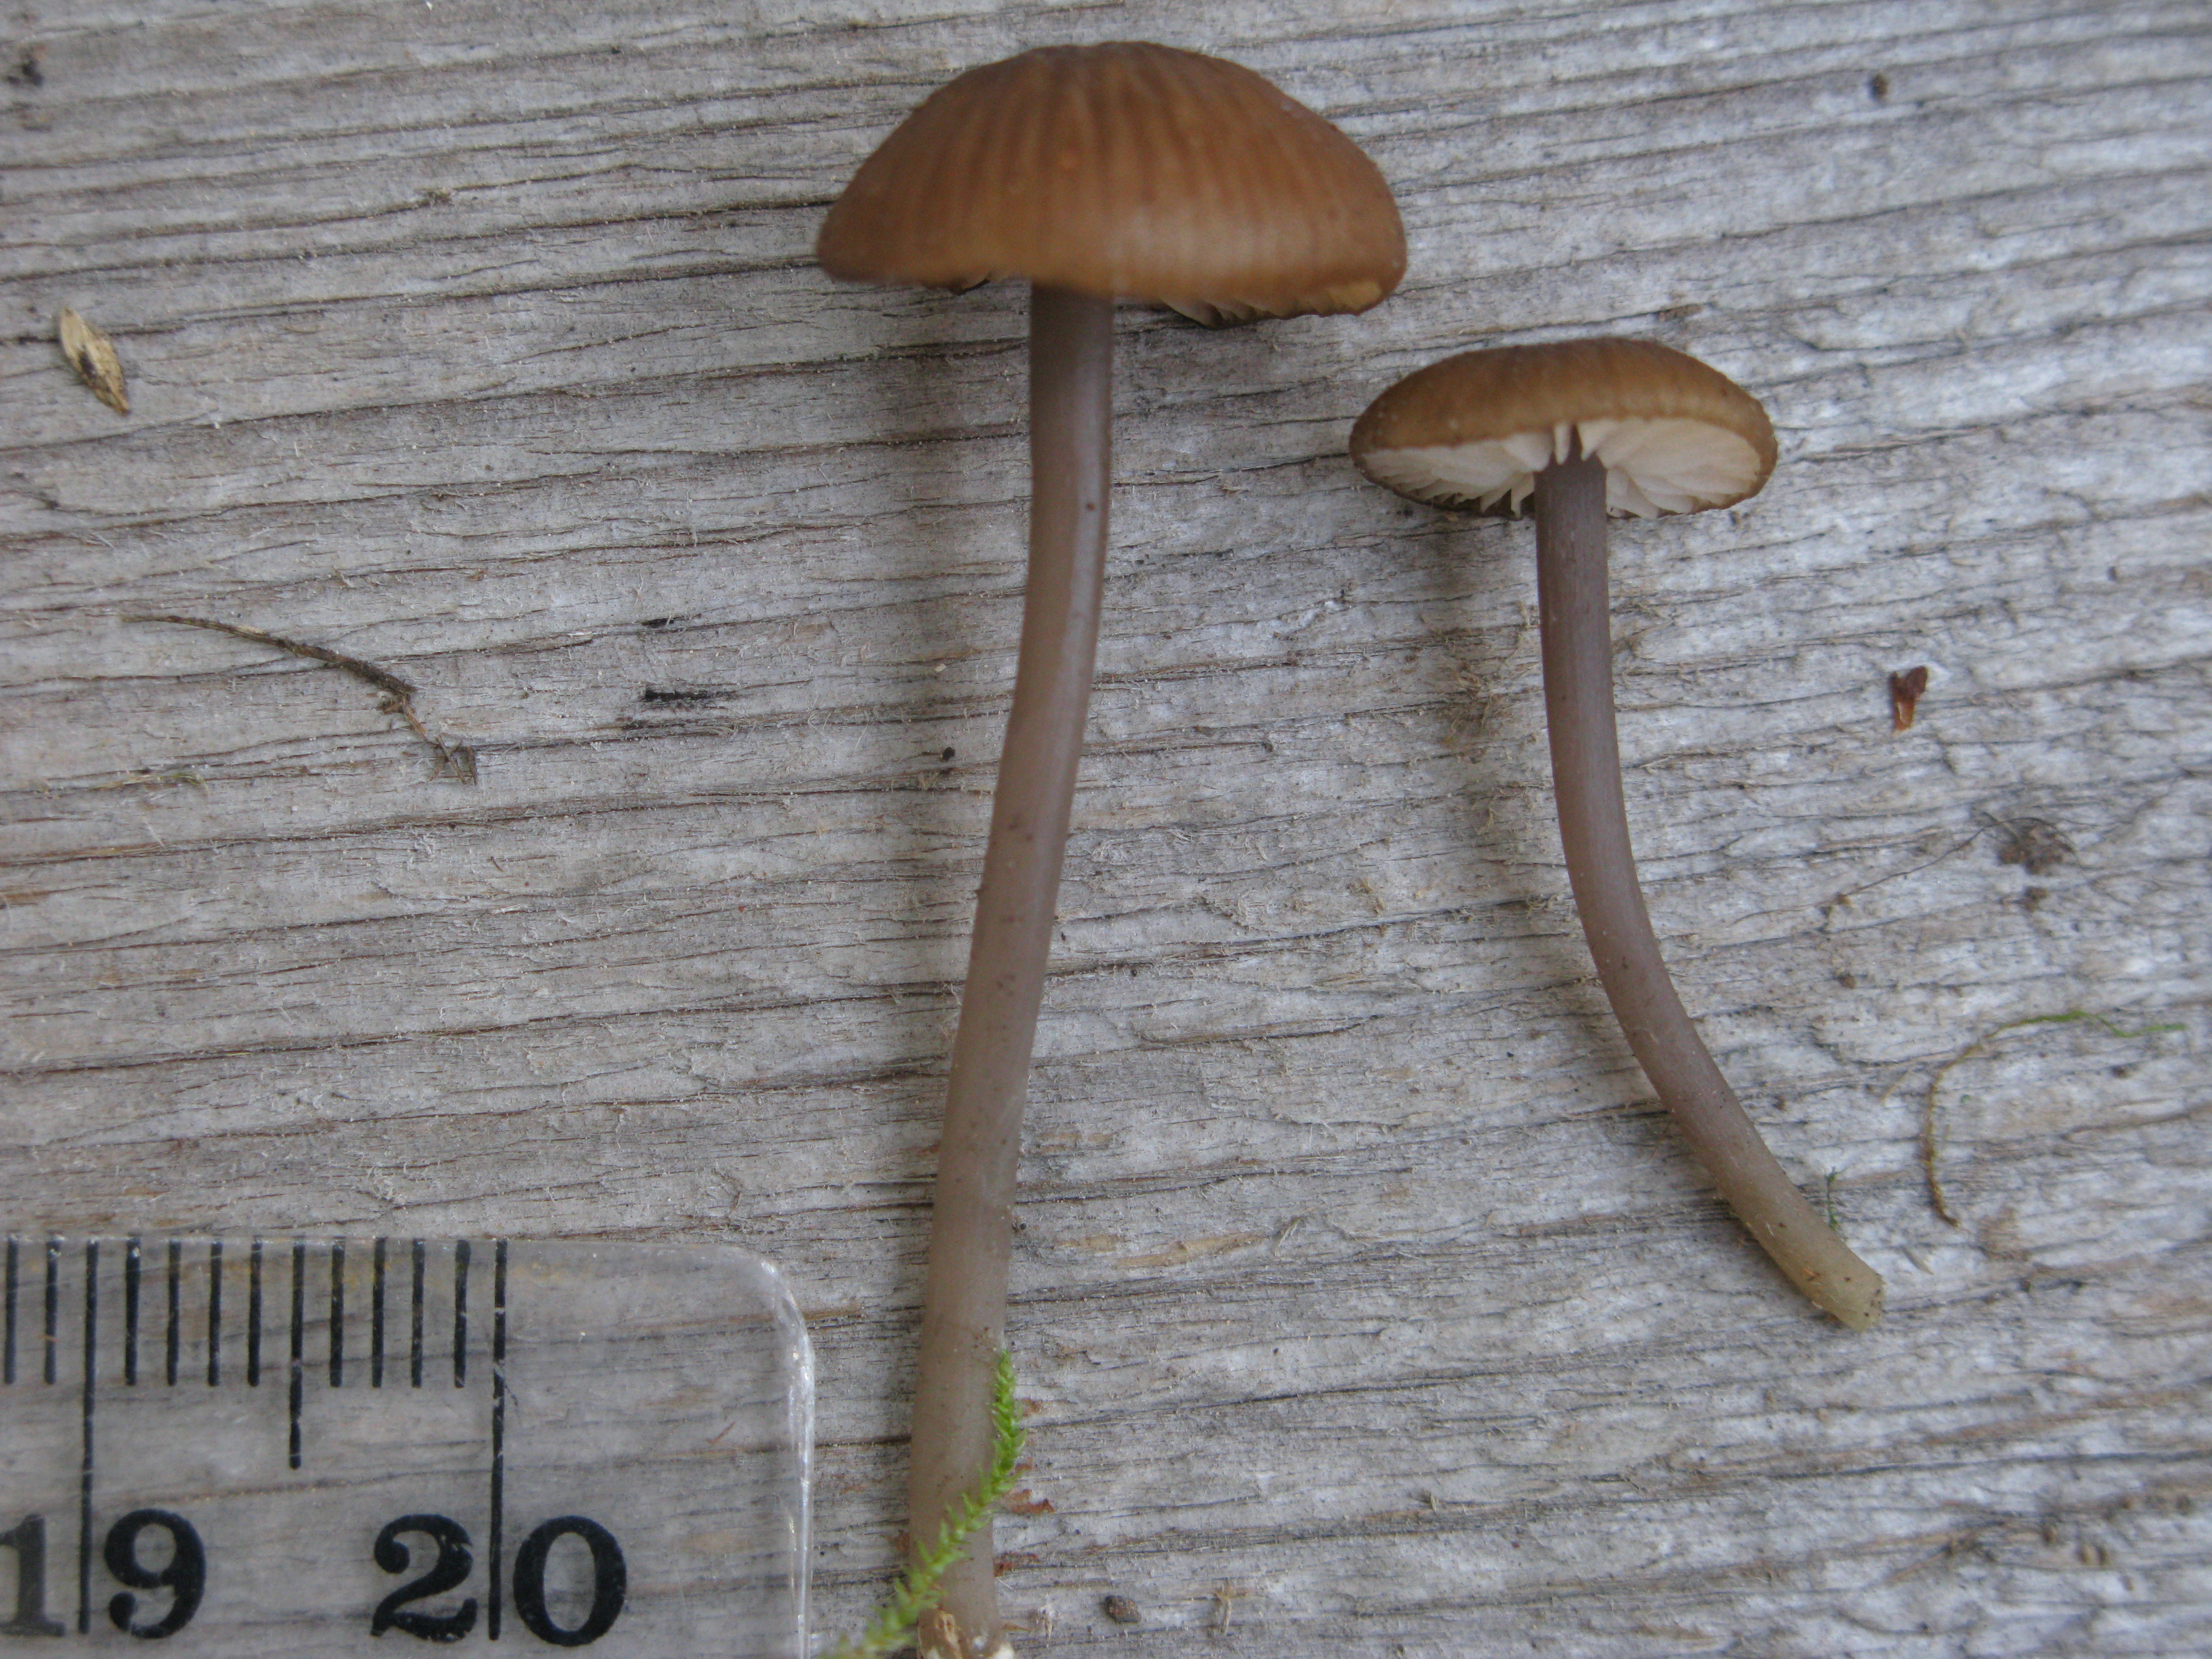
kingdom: Fungi
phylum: Basidiomycota
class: Agaricomycetes
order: Agaricales
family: Entolomataceae
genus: Entoloma
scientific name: Entoloma poliopus
